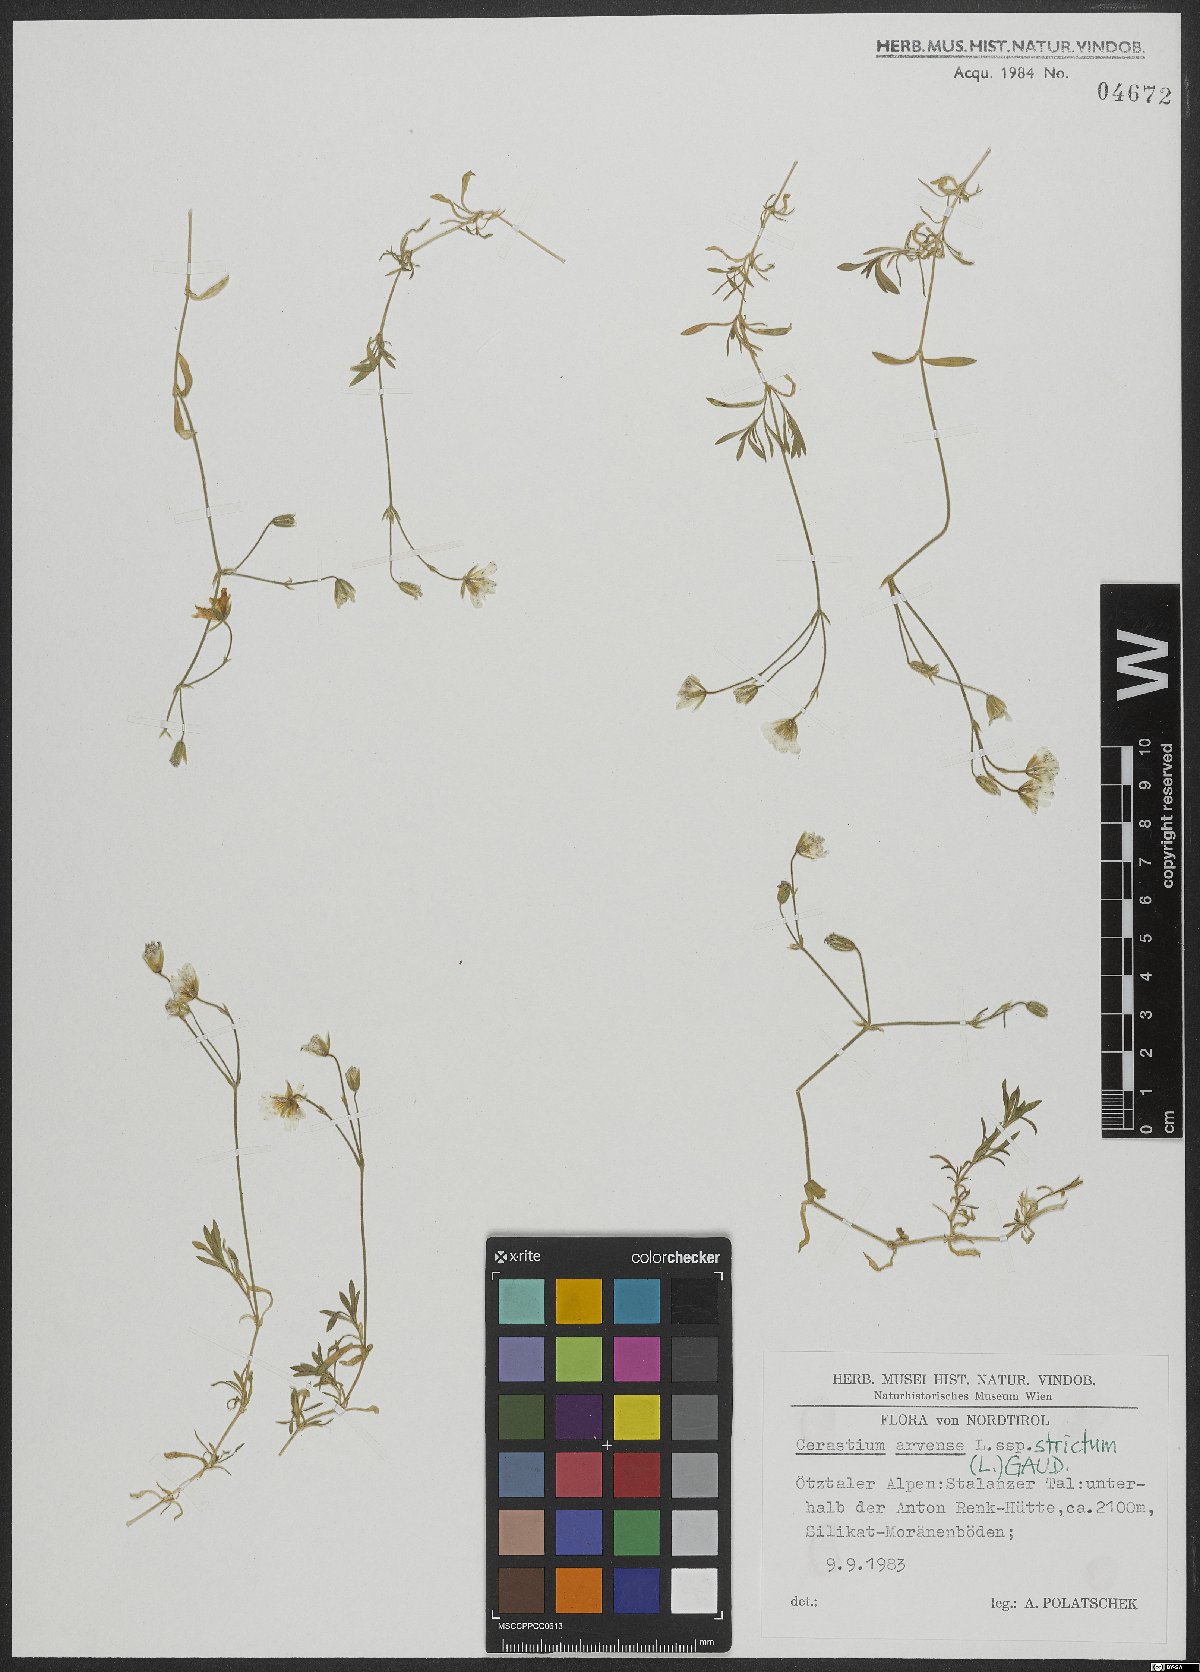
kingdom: Plantae
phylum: Tracheophyta
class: Magnoliopsida
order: Caryophyllales
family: Caryophyllaceae
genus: Cerastium
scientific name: Cerastium elongatum
